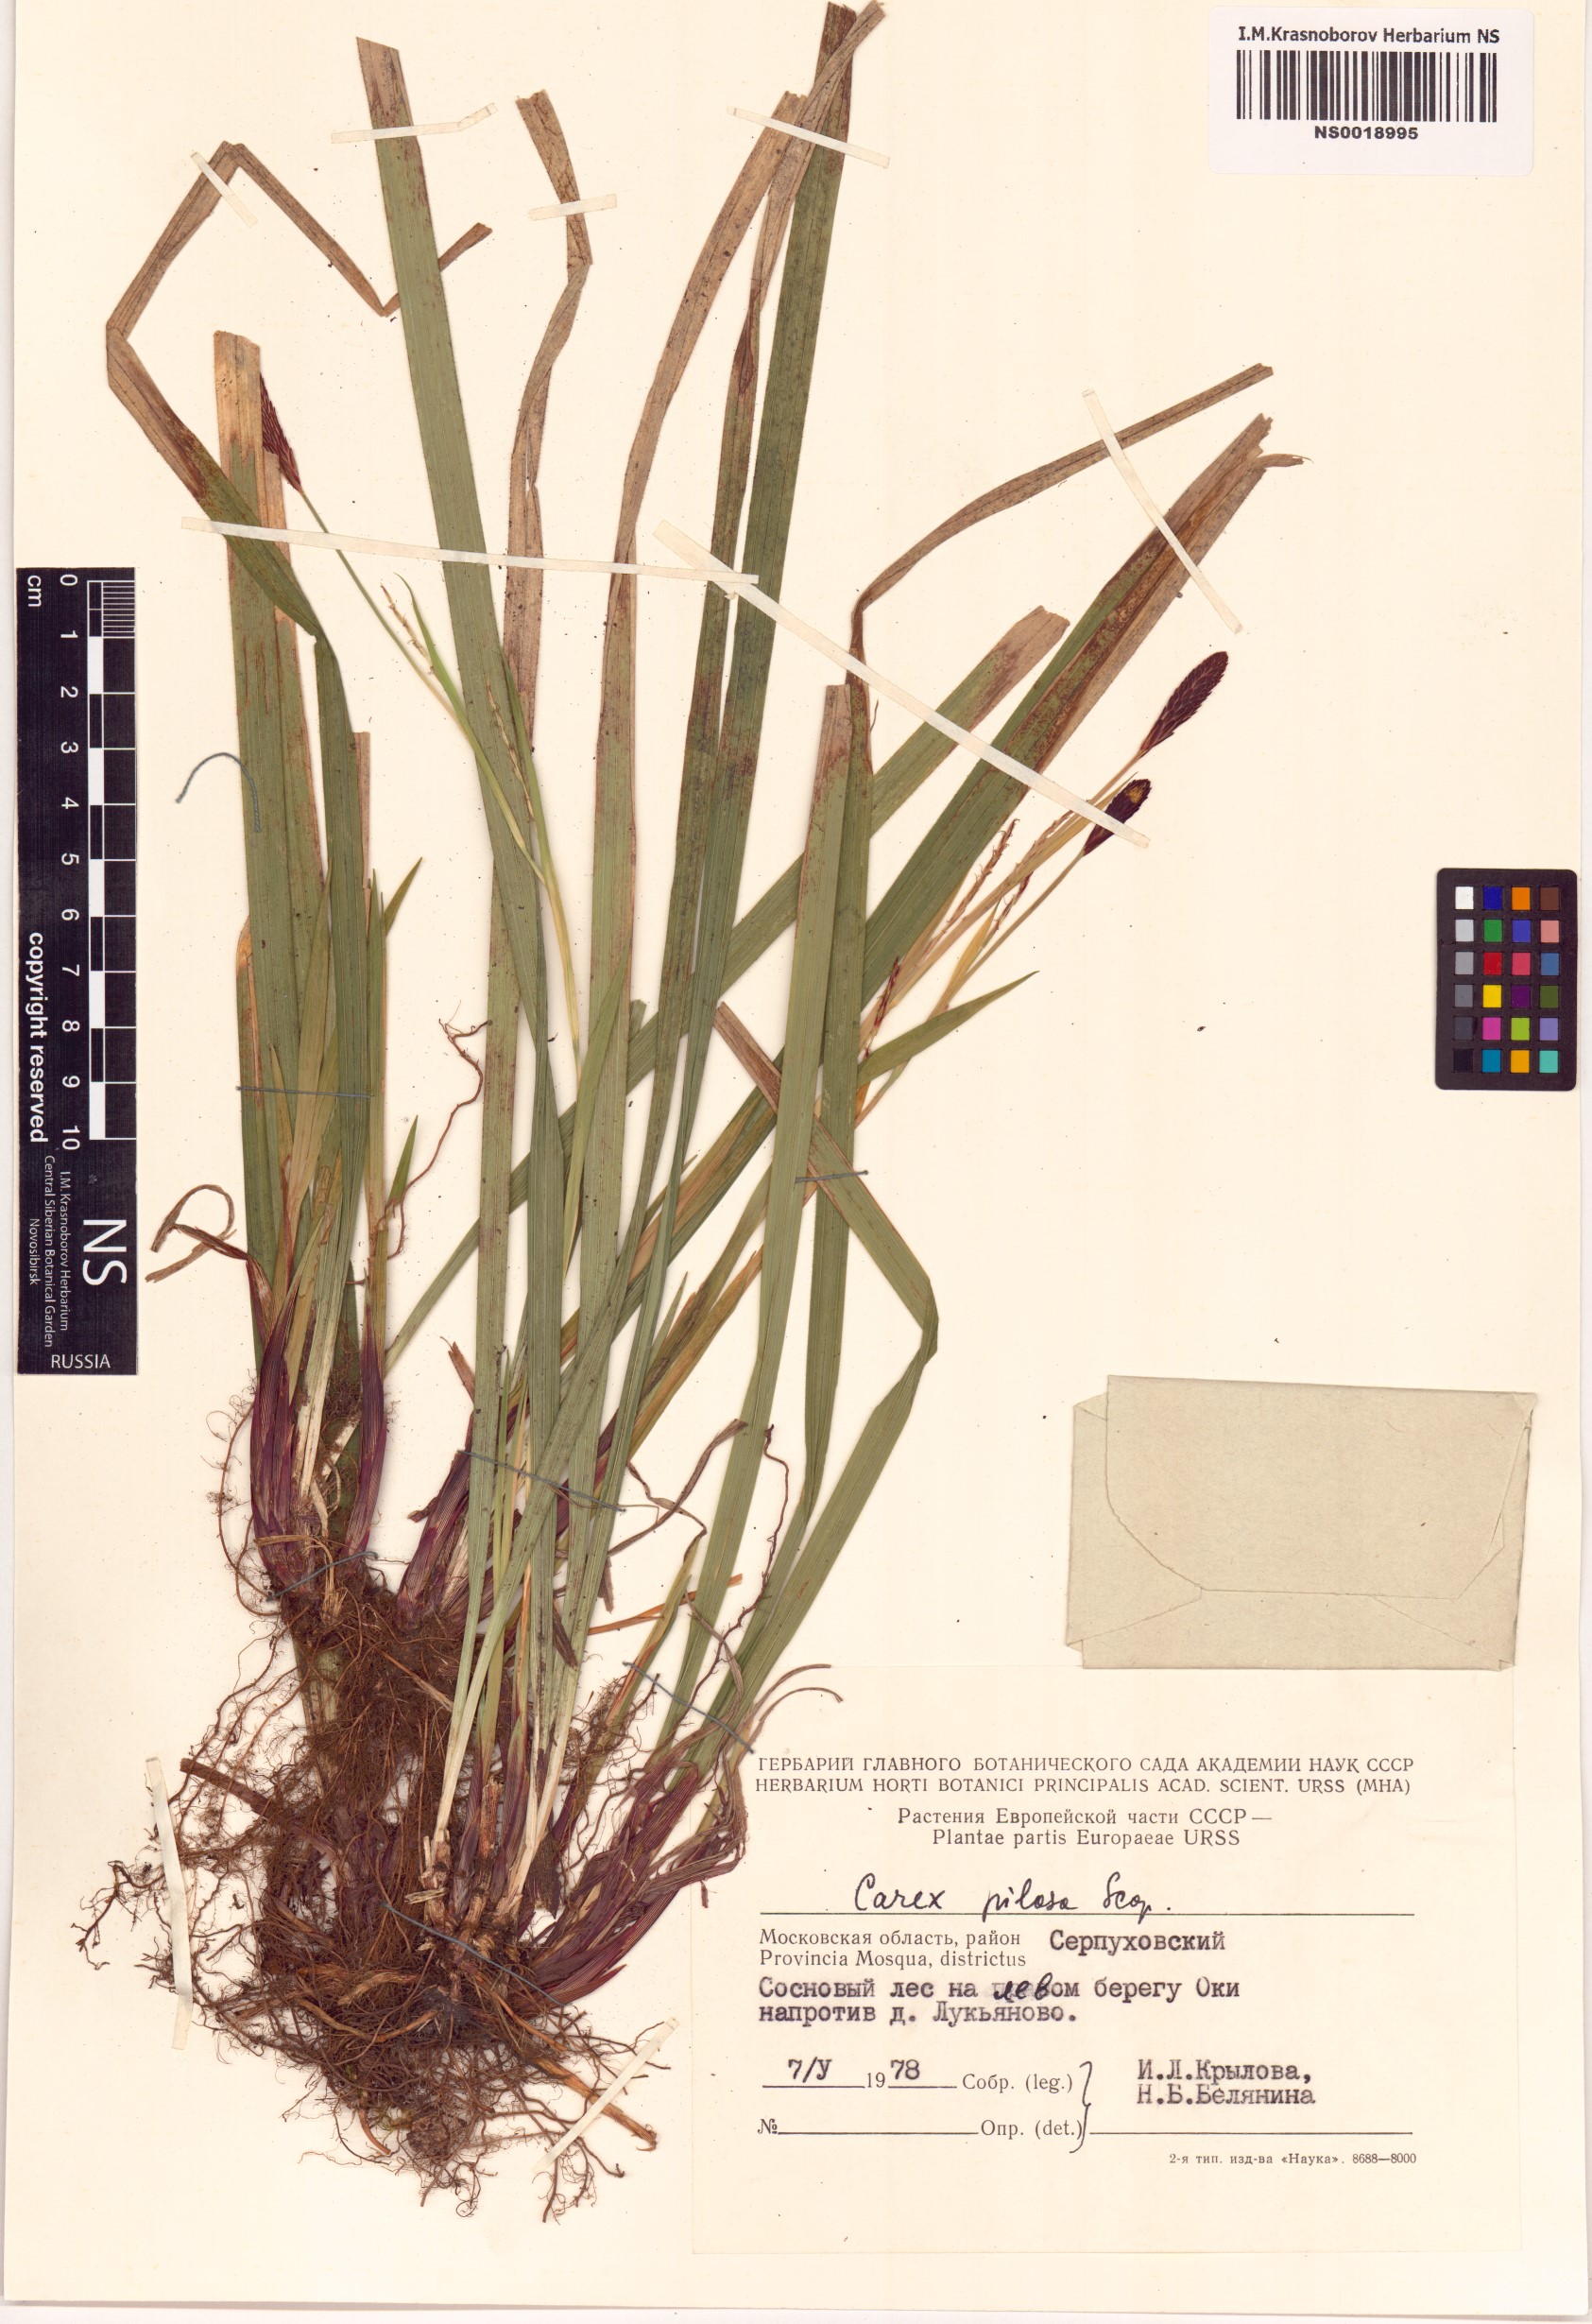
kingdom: Plantae
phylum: Tracheophyta
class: Liliopsida
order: Poales
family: Cyperaceae
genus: Carex
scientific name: Carex pilosa
